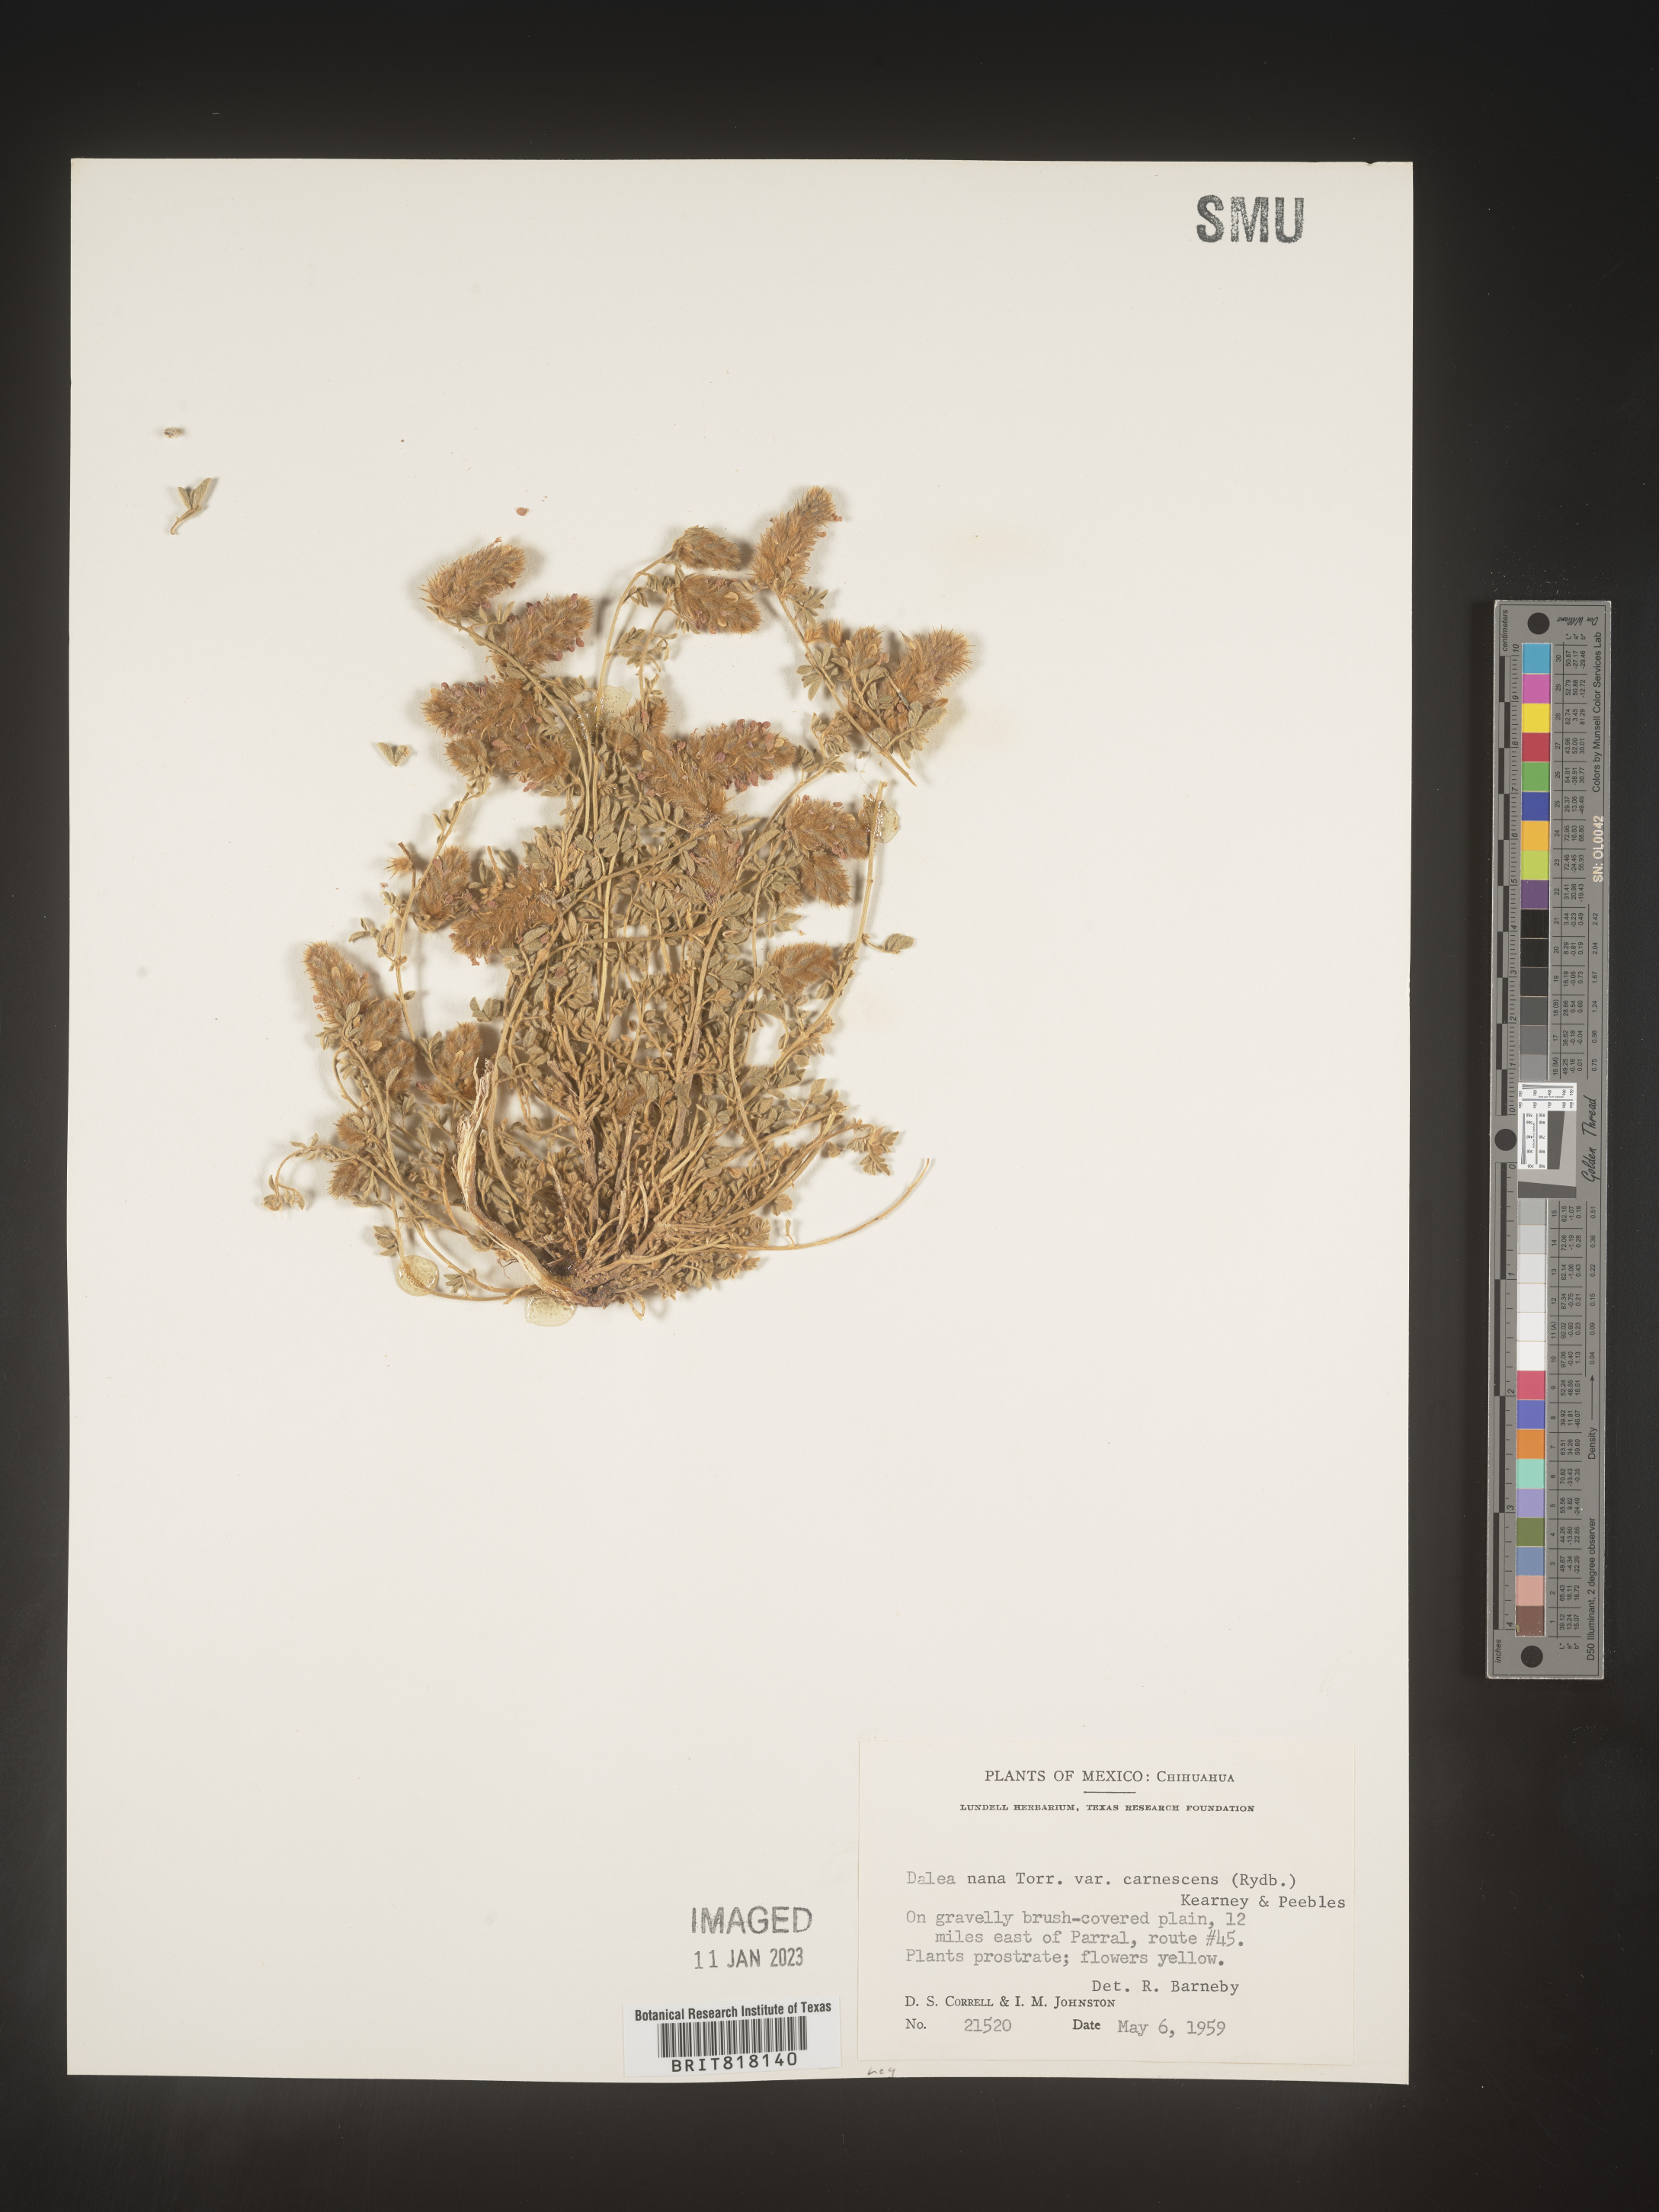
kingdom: Plantae
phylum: Tracheophyta
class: Magnoliopsida
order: Fabales
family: Fabaceae
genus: Dalea
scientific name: Dalea
